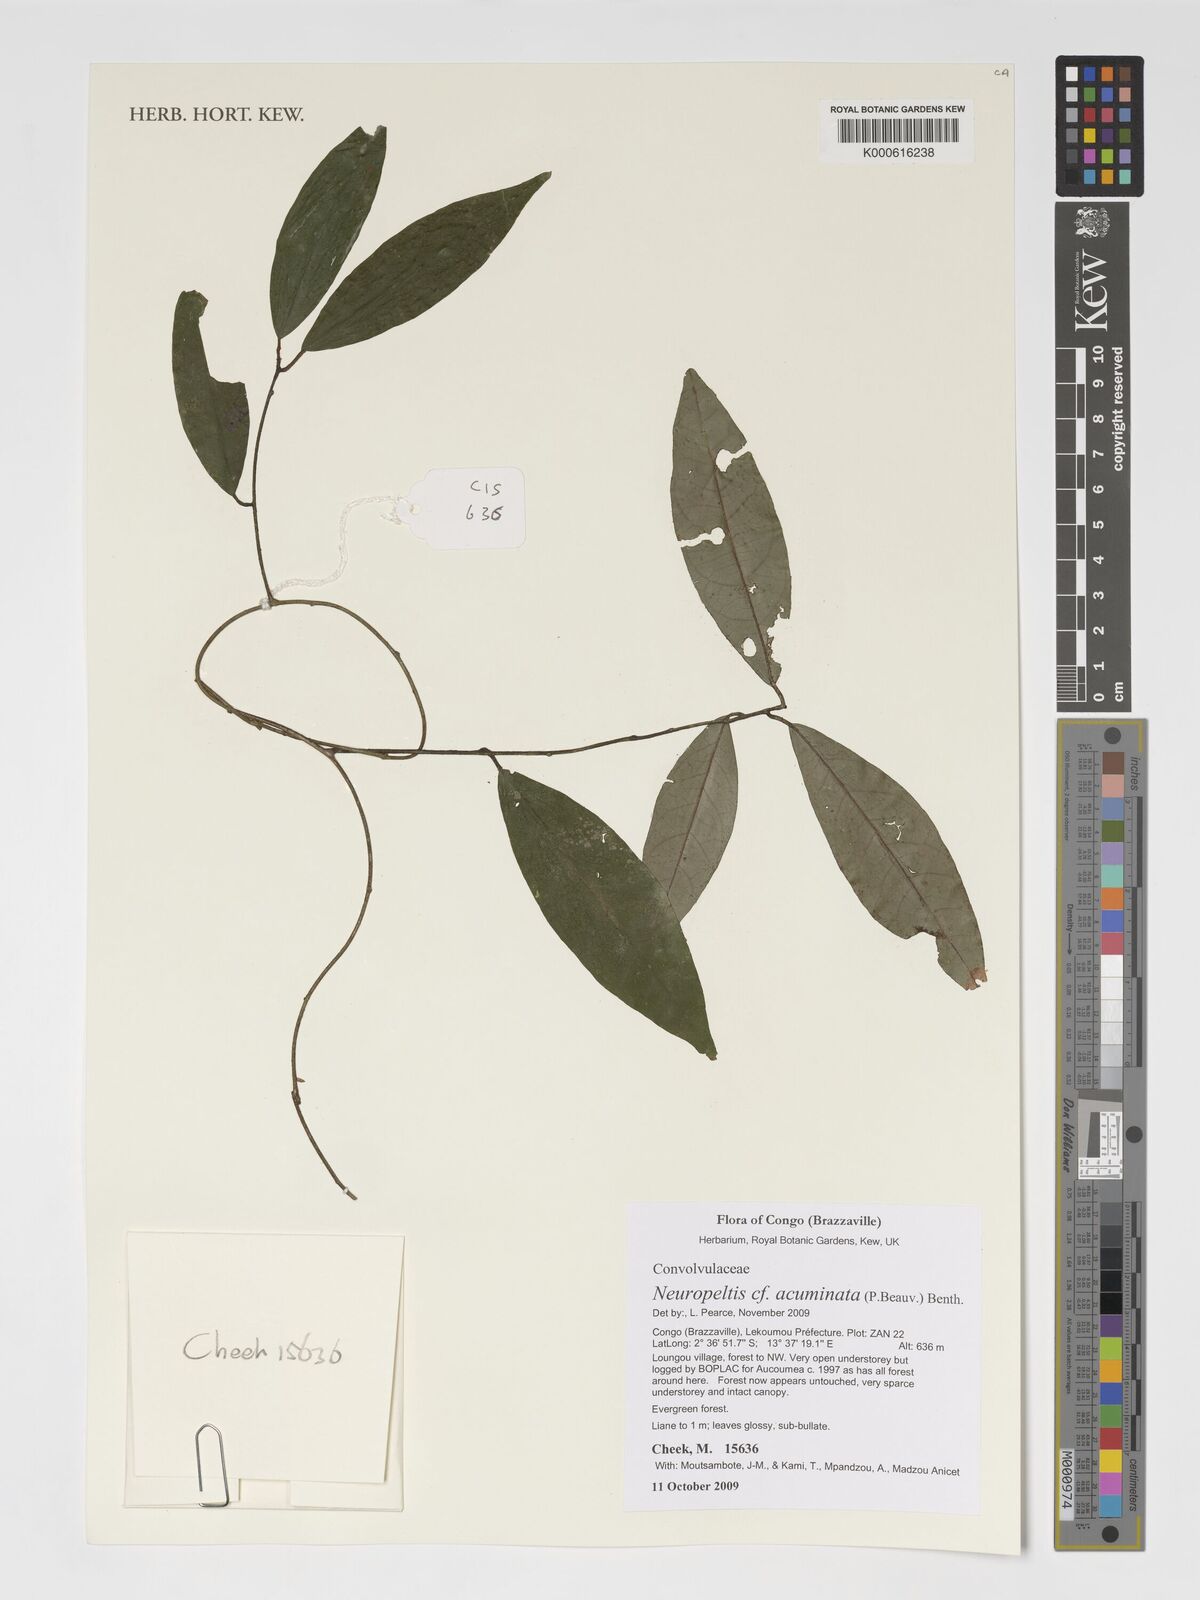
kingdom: Plantae
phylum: Tracheophyta
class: Magnoliopsida
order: Solanales
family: Convolvulaceae
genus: Neuropeltis
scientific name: Neuropeltis acuminata
